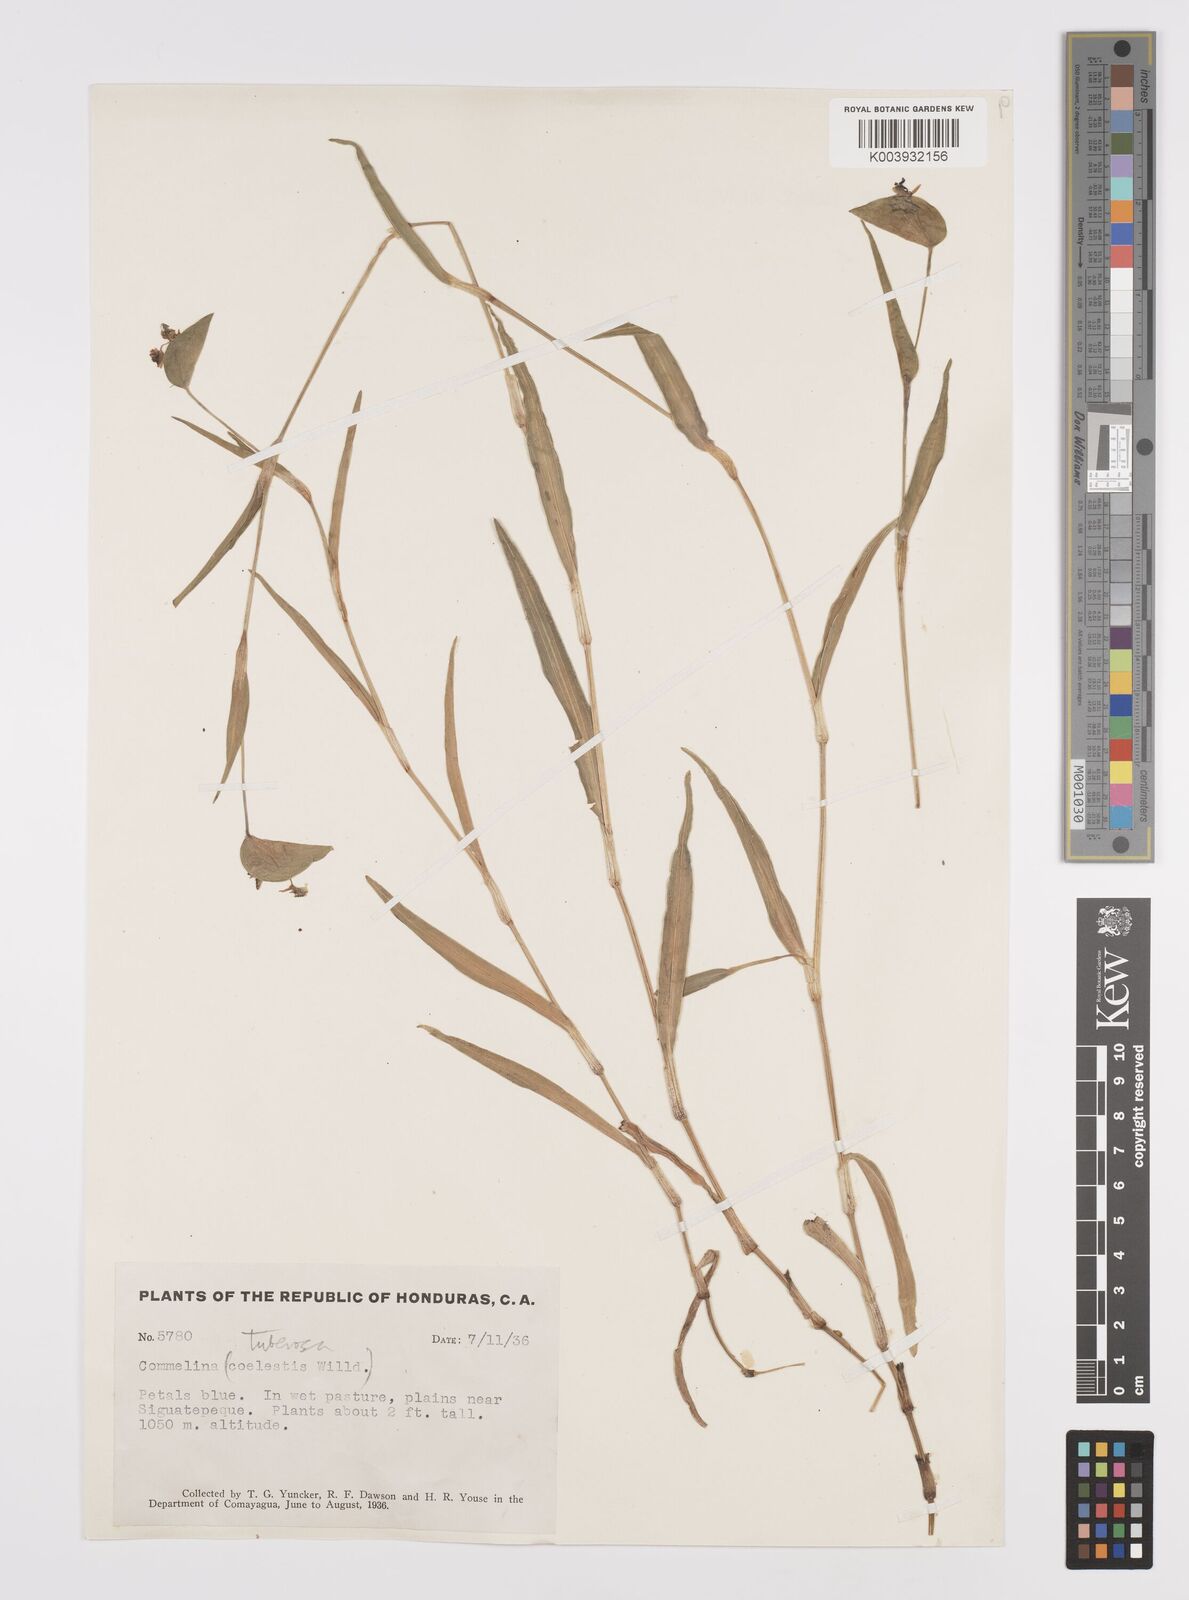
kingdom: Plantae
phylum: Tracheophyta
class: Liliopsida
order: Commelinales
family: Commelinaceae
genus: Commelina
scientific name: Commelina standleyi
